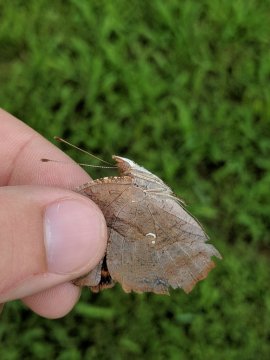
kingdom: Animalia
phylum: Arthropoda
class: Insecta
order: Lepidoptera
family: Nymphalidae
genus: Polygonia
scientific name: Polygonia interrogationis
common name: Question Mark
